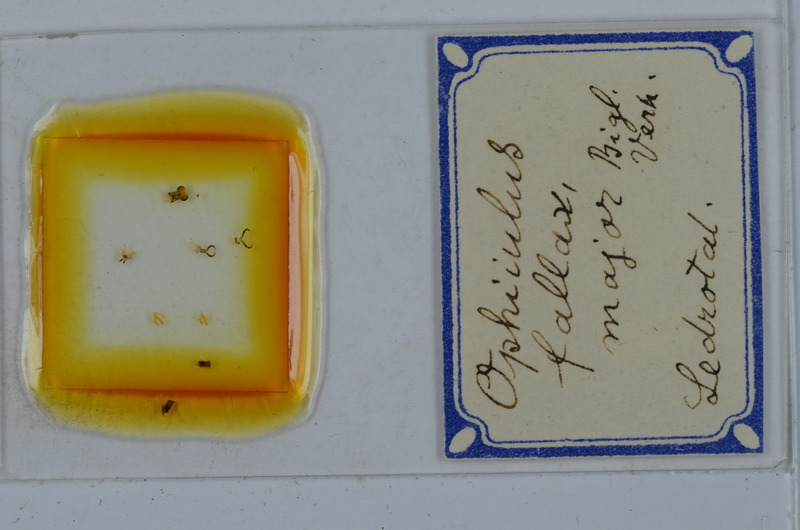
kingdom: Animalia
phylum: Arthropoda
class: Diplopoda
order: Julida
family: Julidae
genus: Ophyiulus
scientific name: Ophyiulus pilosus
